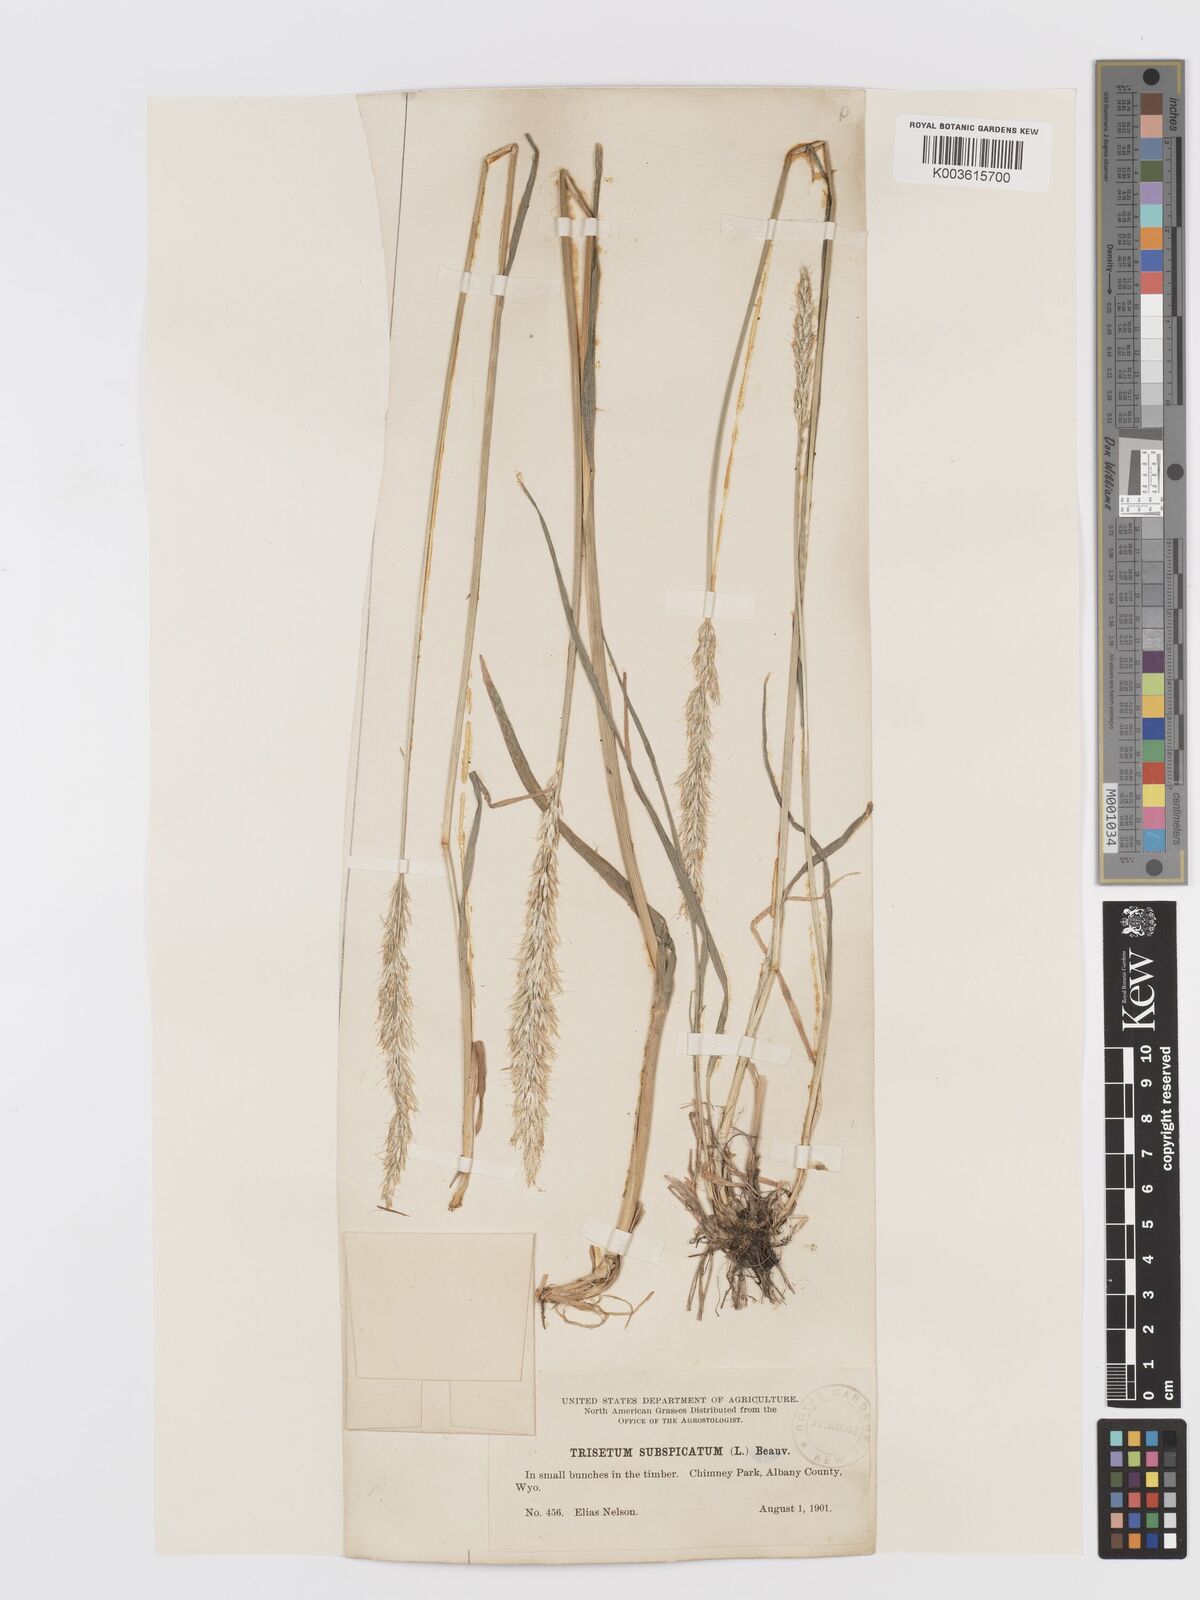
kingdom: Plantae
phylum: Tracheophyta
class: Liliopsida
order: Poales
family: Poaceae
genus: Koeleria
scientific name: Koeleria spicata
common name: Mountain trisetum
